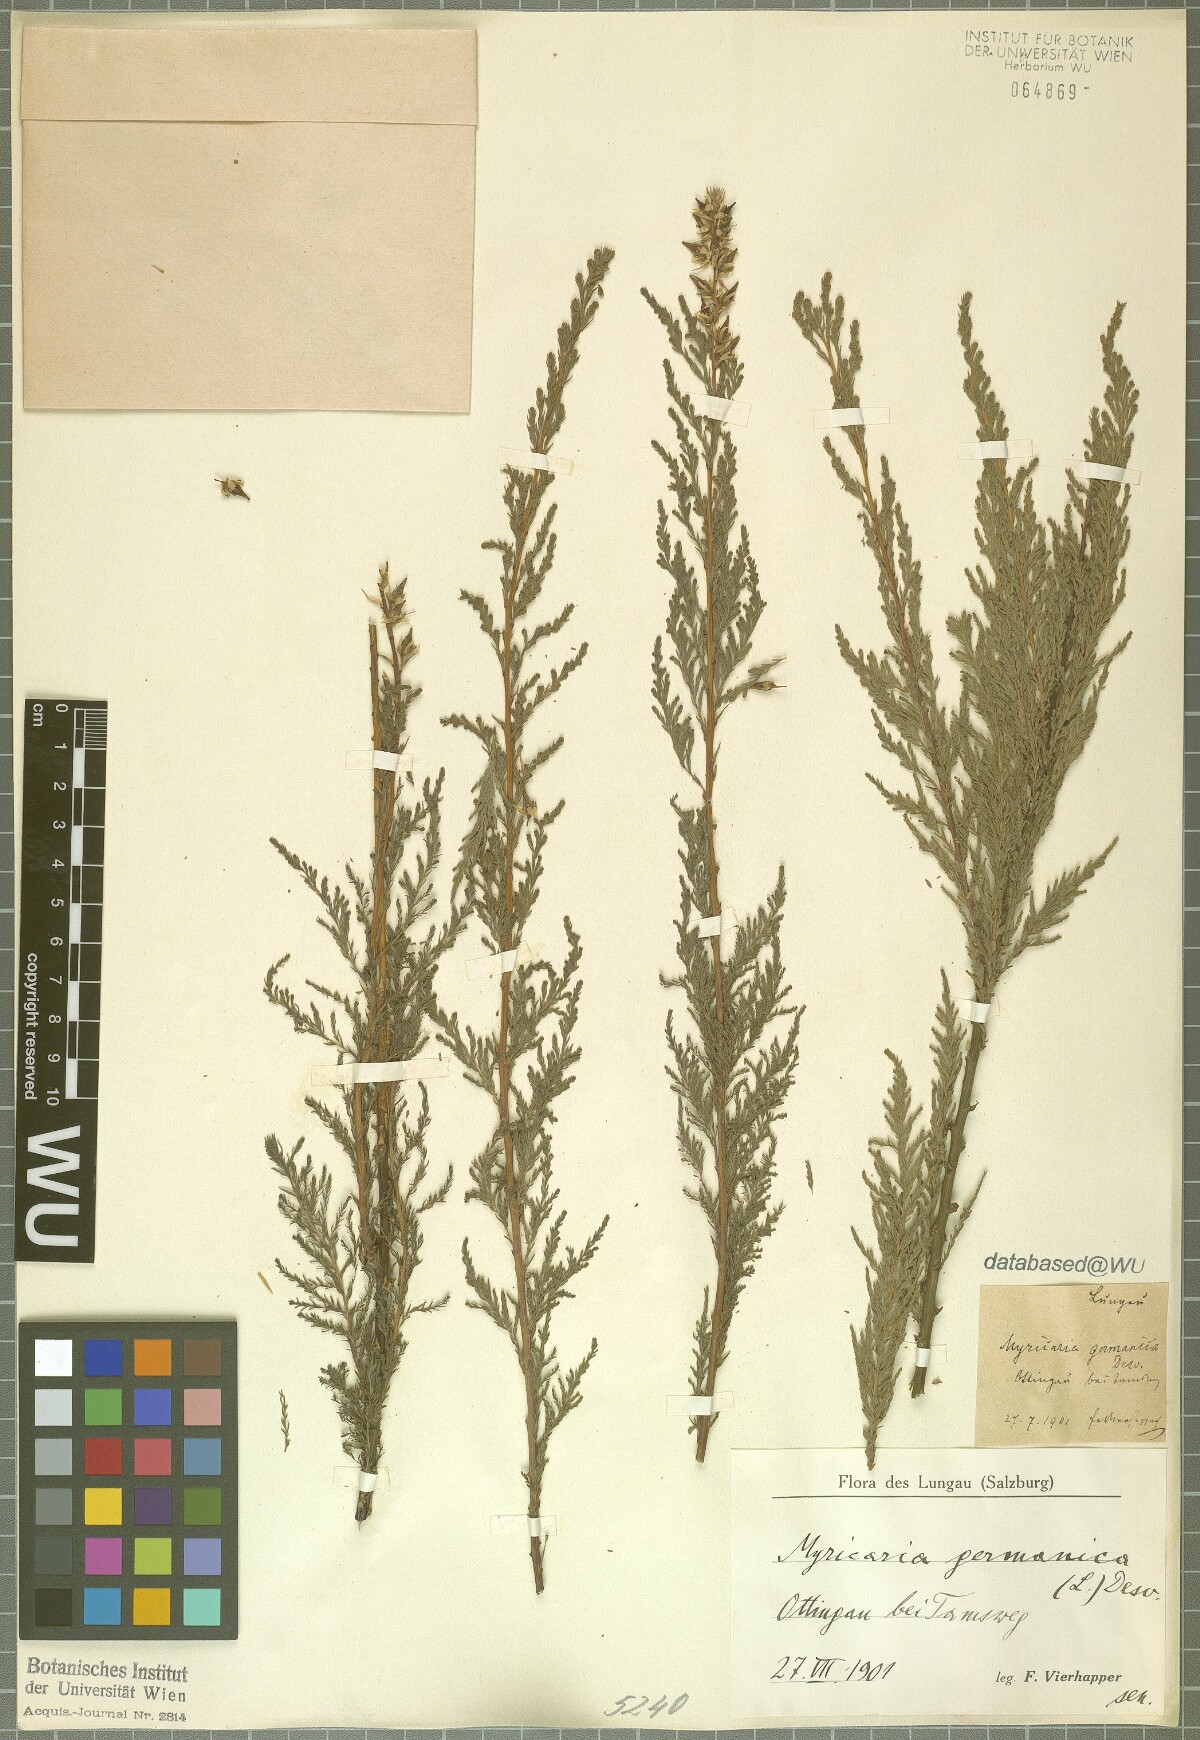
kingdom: Plantae
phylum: Tracheophyta
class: Magnoliopsida
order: Caryophyllales
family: Tamaricaceae
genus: Myricaria
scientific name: Myricaria germanica
